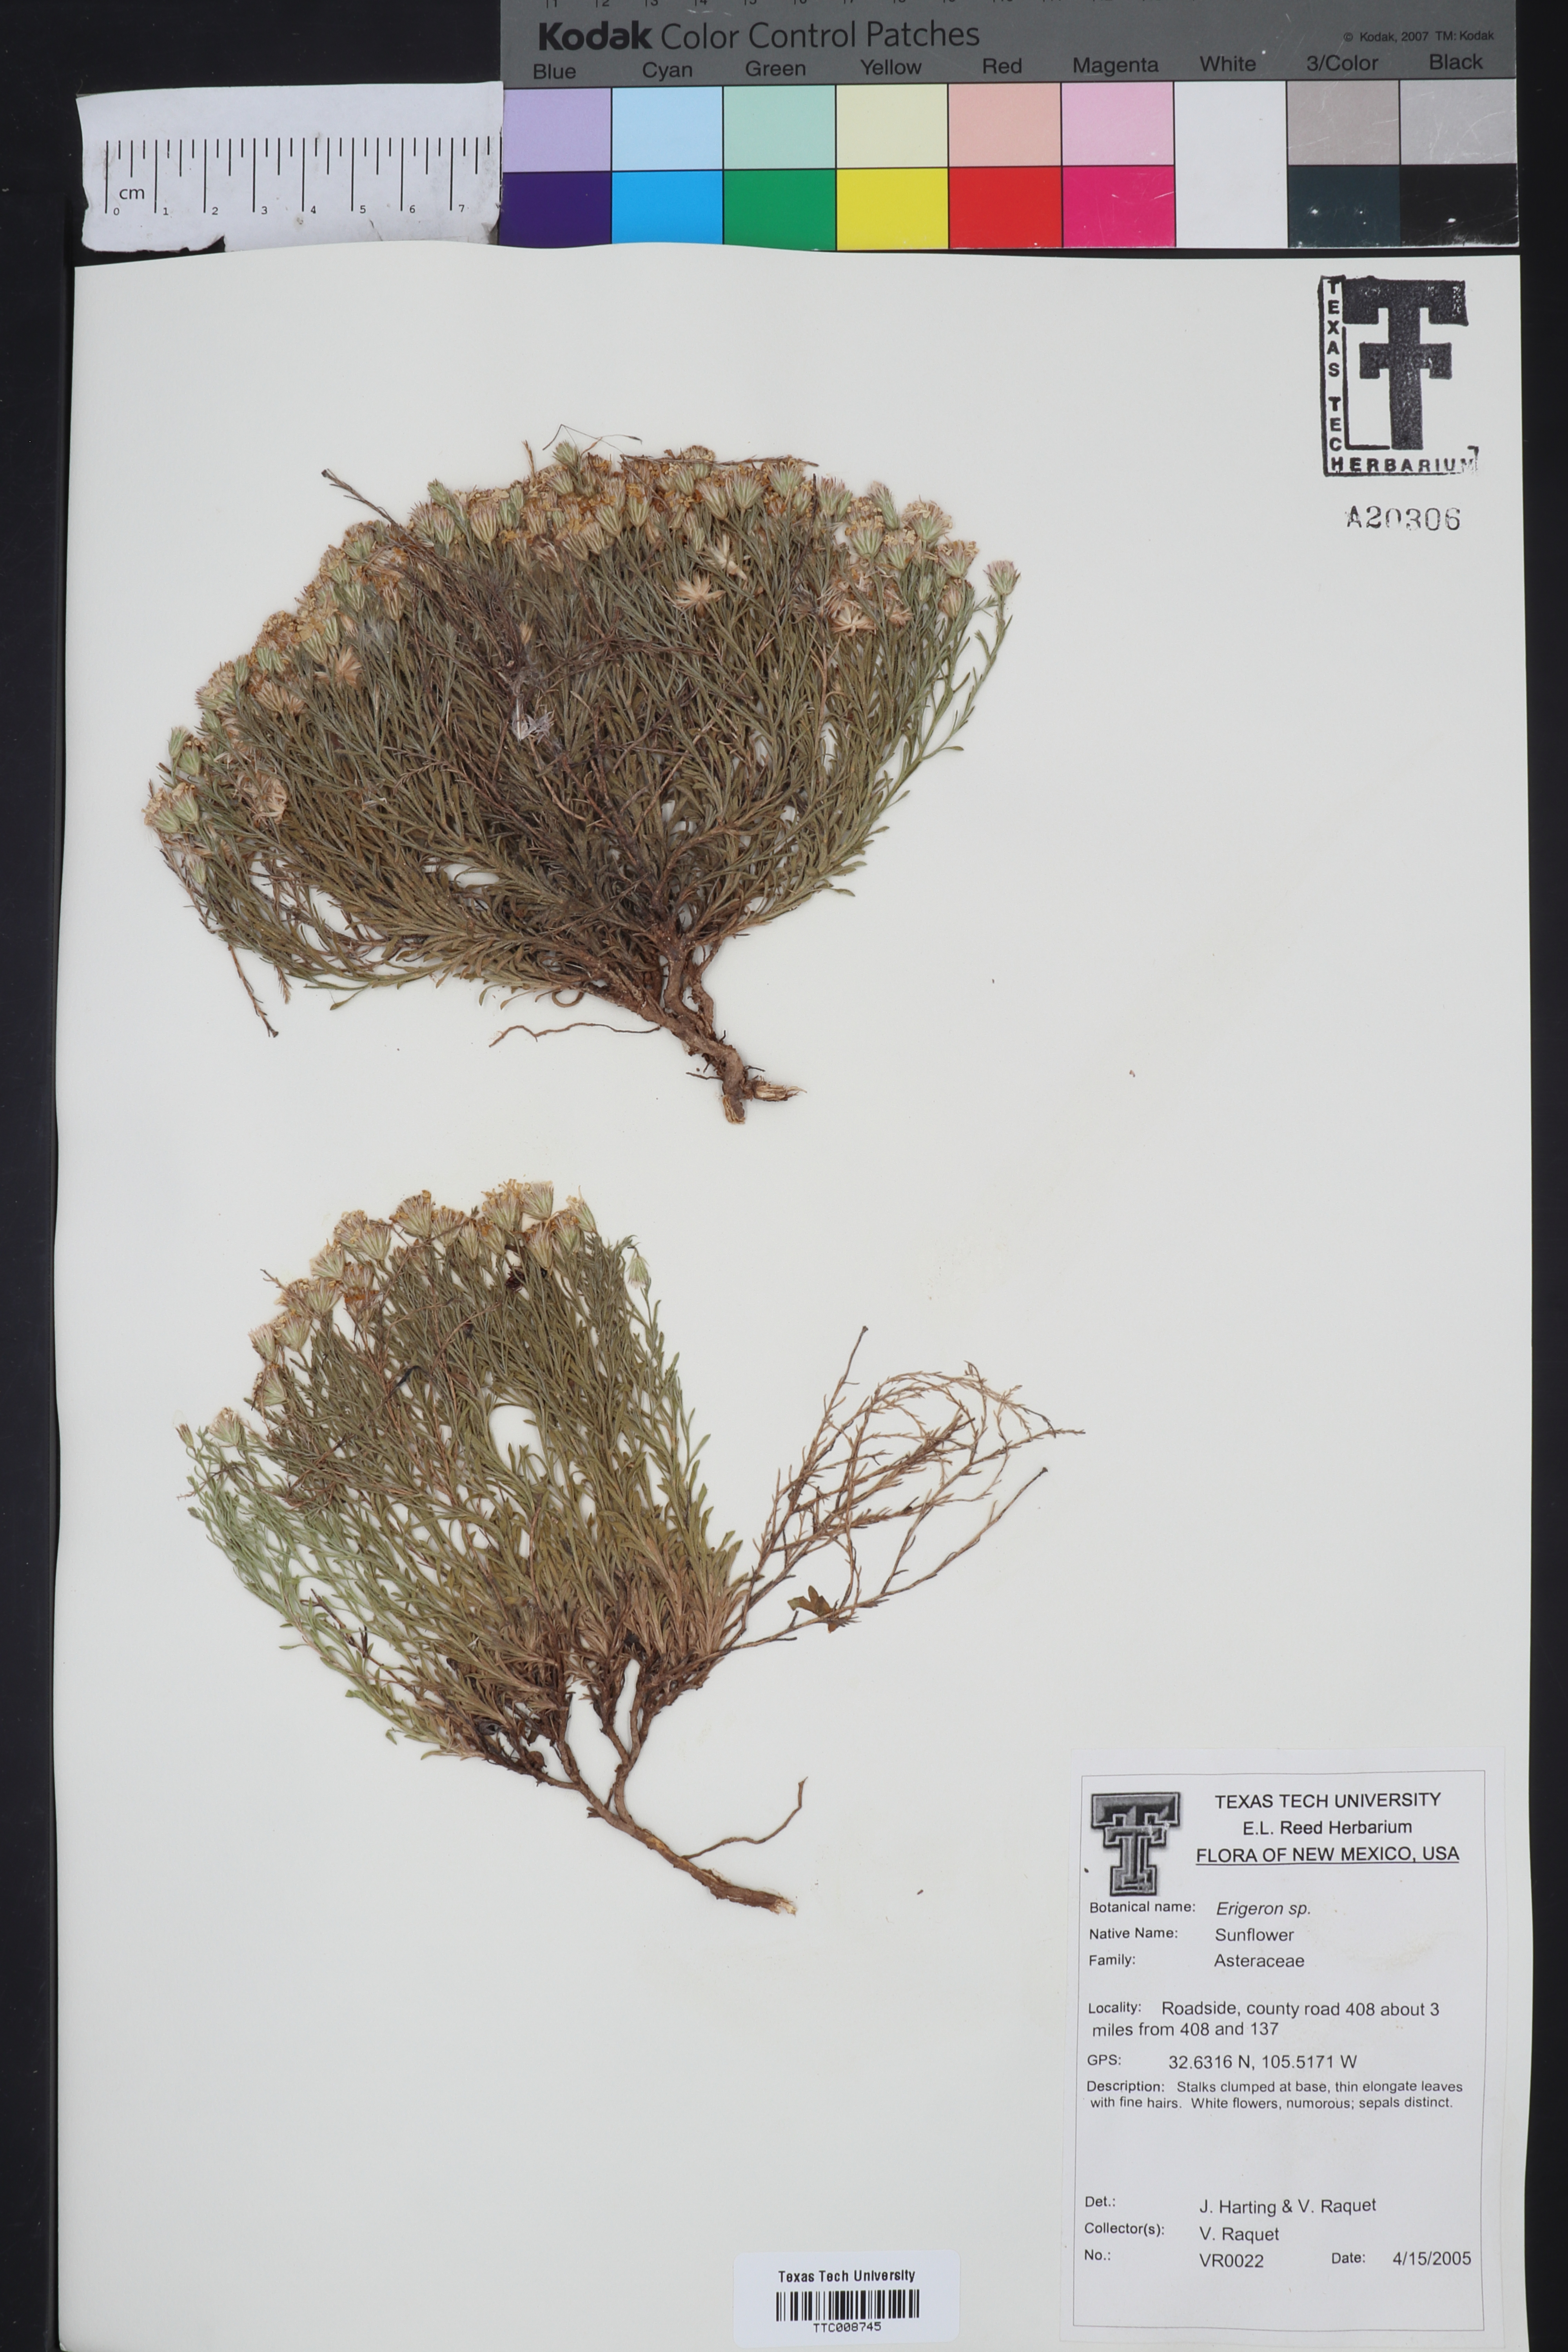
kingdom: Plantae
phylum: Tracheophyta
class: Magnoliopsida
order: Asterales
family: Asteraceae
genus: Erigeron
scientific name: Erigeron
